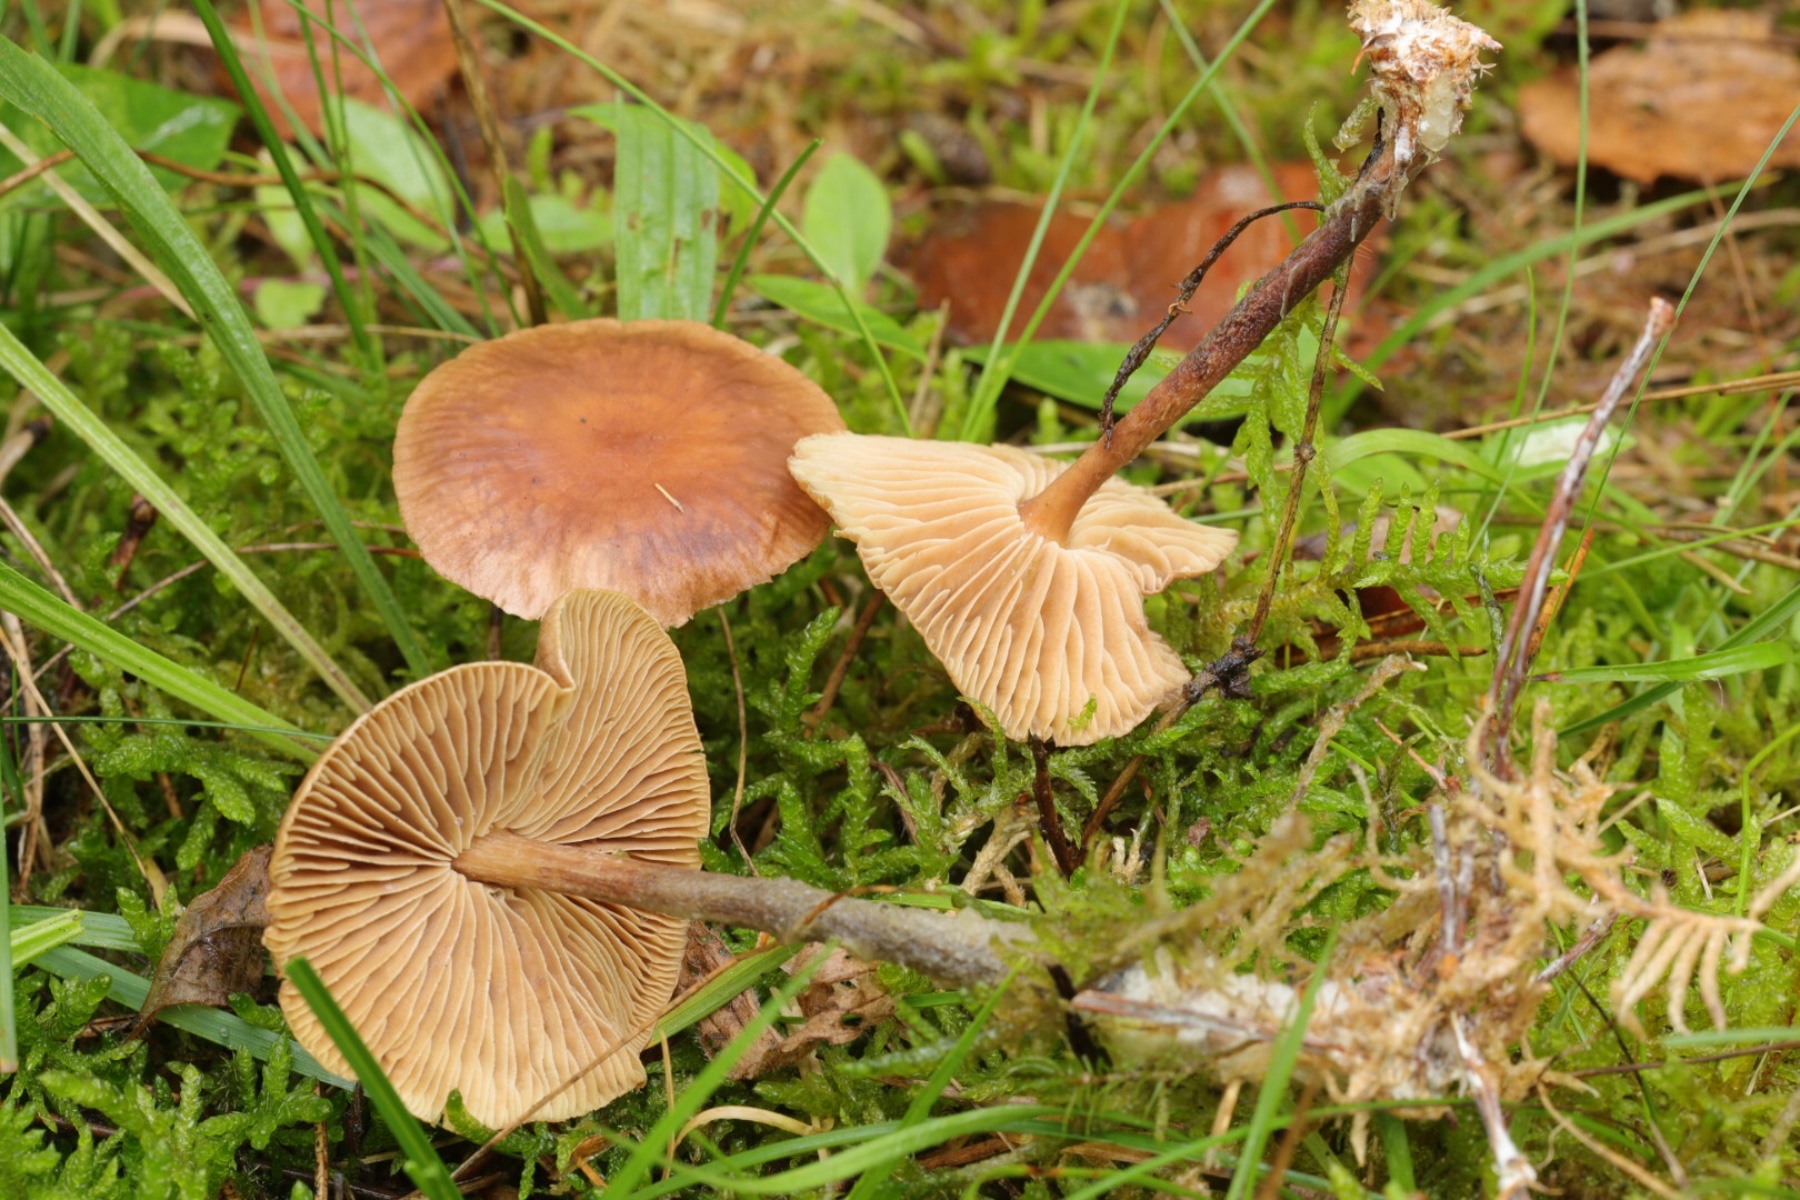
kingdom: Fungi
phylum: Basidiomycota
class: Agaricomycetes
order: Agaricales
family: Omphalotaceae
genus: Collybiopsis
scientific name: Collybiopsis peronata
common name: bestøvlet fladhat
